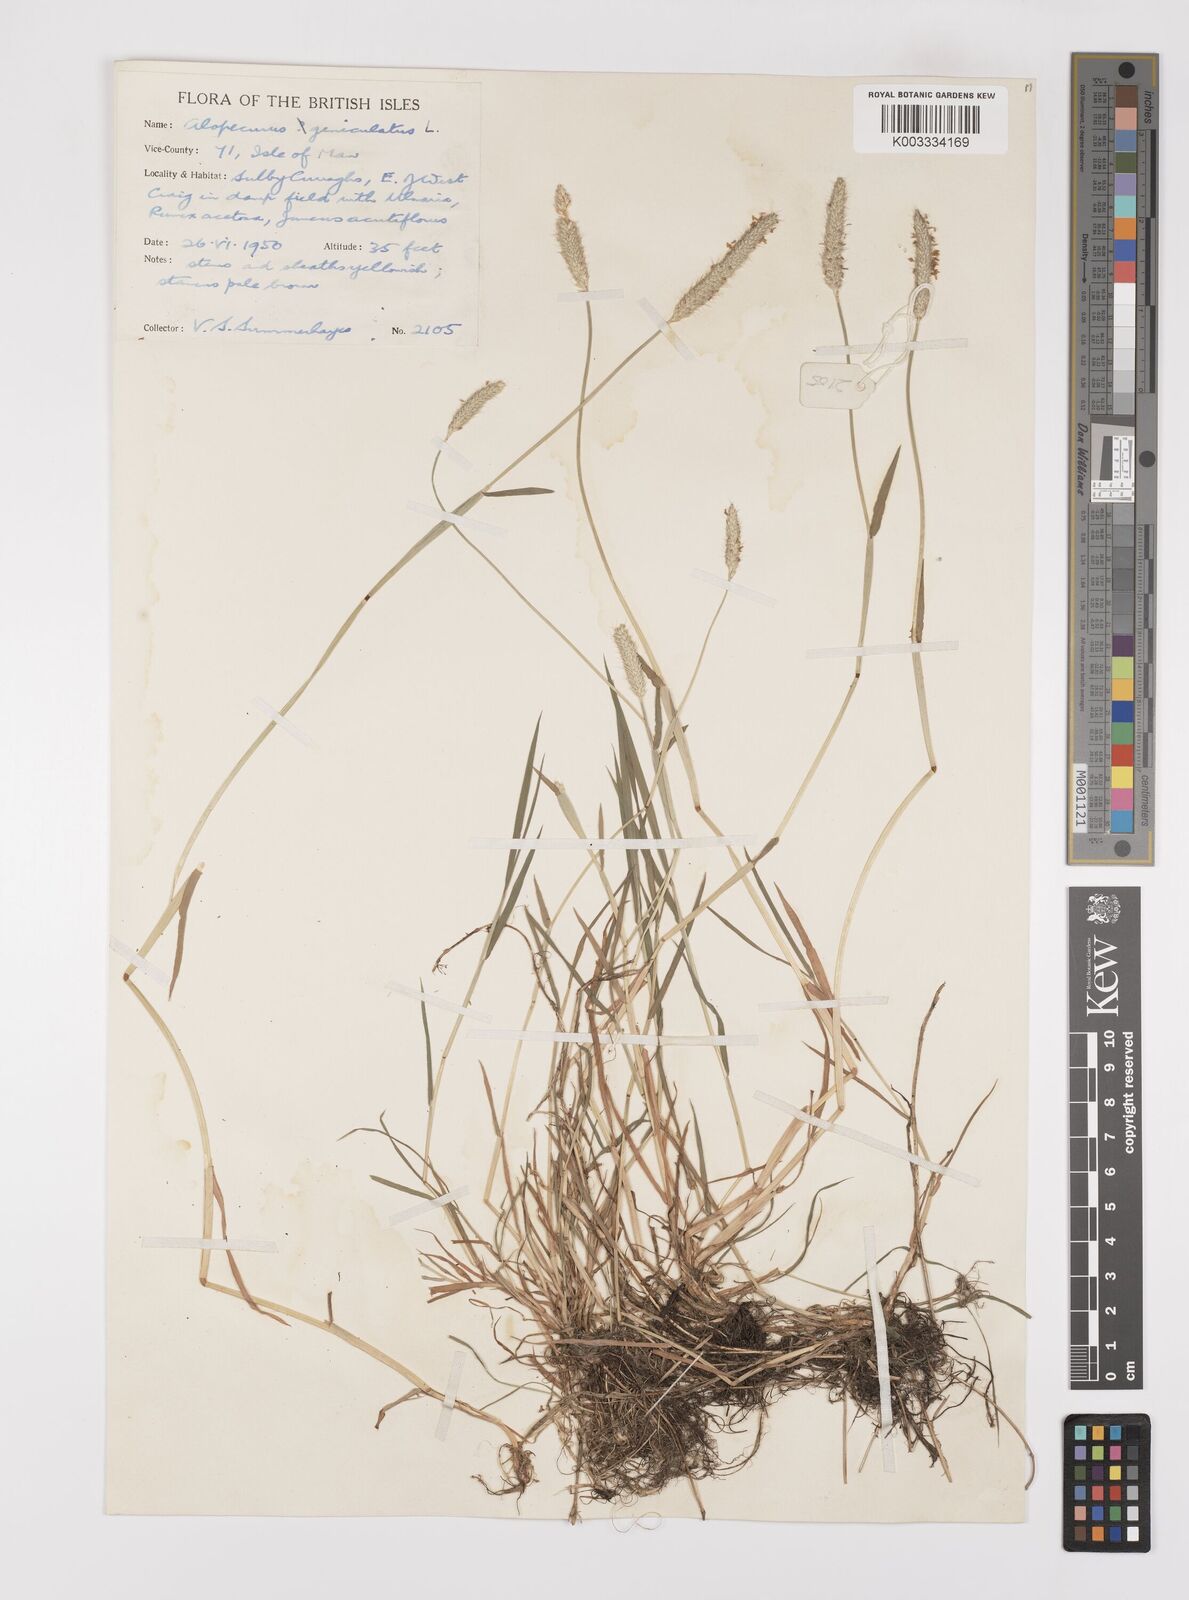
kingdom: Plantae
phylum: Tracheophyta
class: Liliopsida
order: Poales
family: Poaceae
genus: Alopecurus
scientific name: Alopecurus geniculatus
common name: Water foxtail
